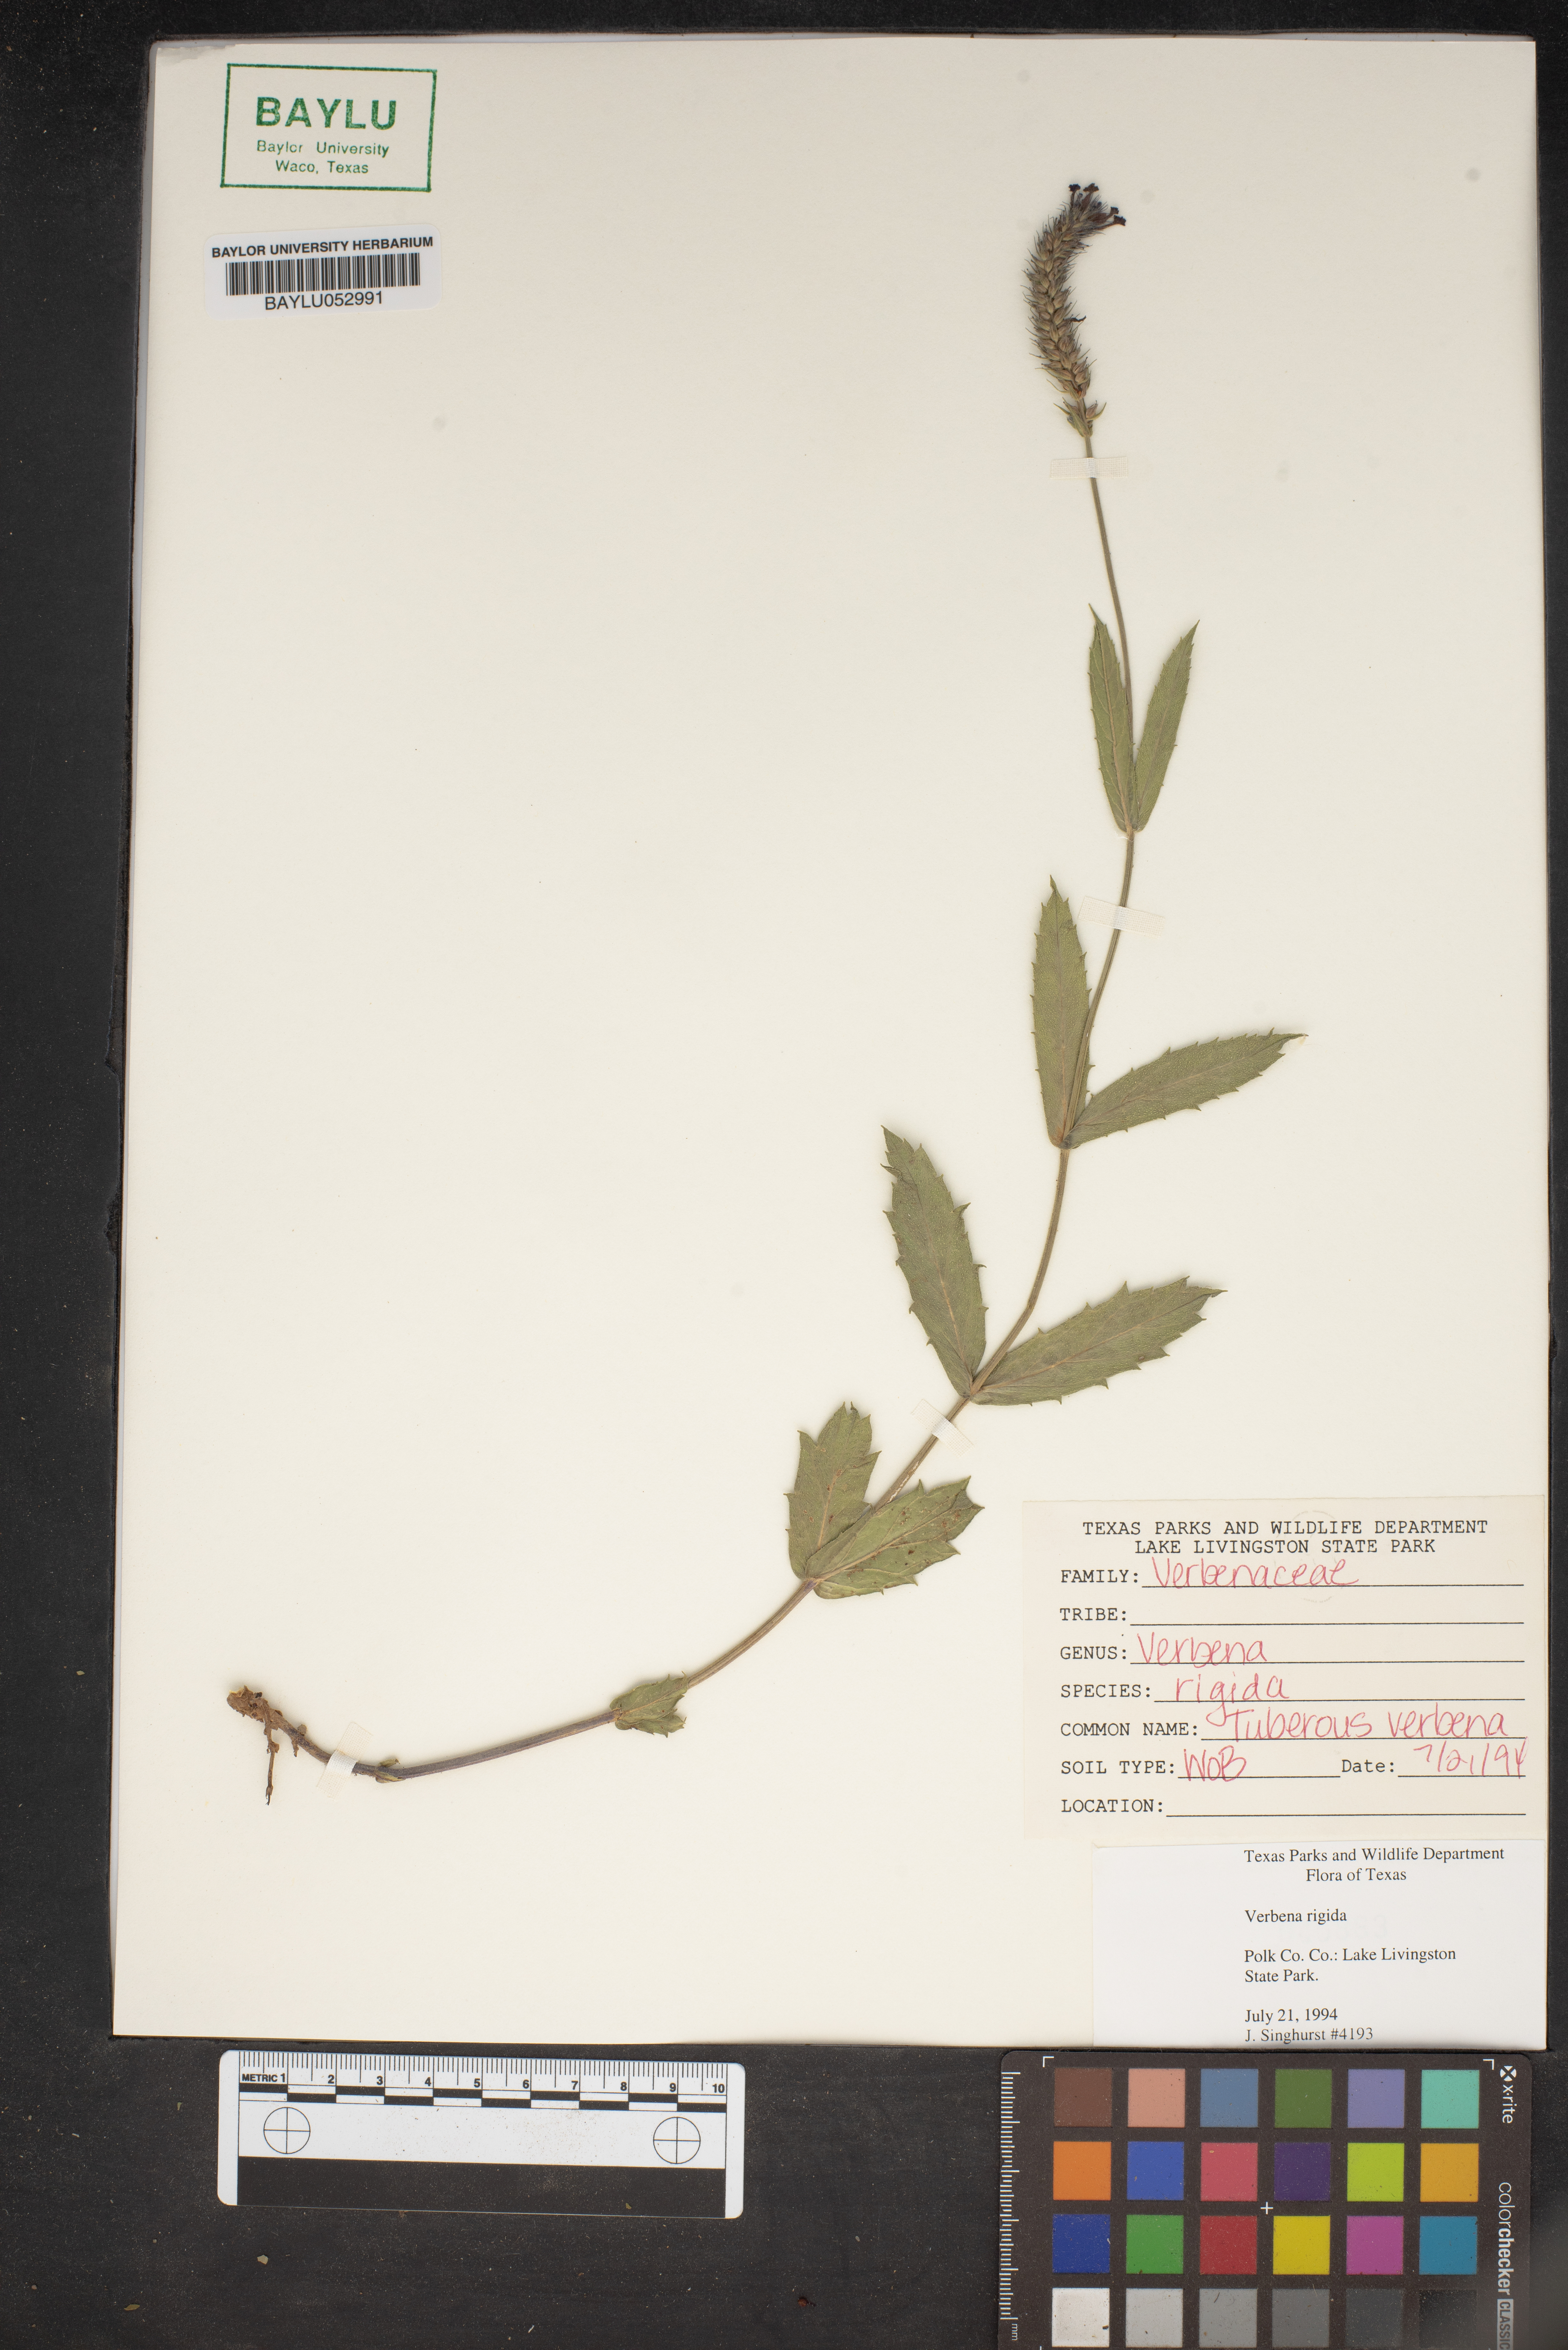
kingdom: Plantae
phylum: Tracheophyta
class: Magnoliopsida
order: Lamiales
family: Verbenaceae
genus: Verbena
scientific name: Verbena rigida
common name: Slender vervain
